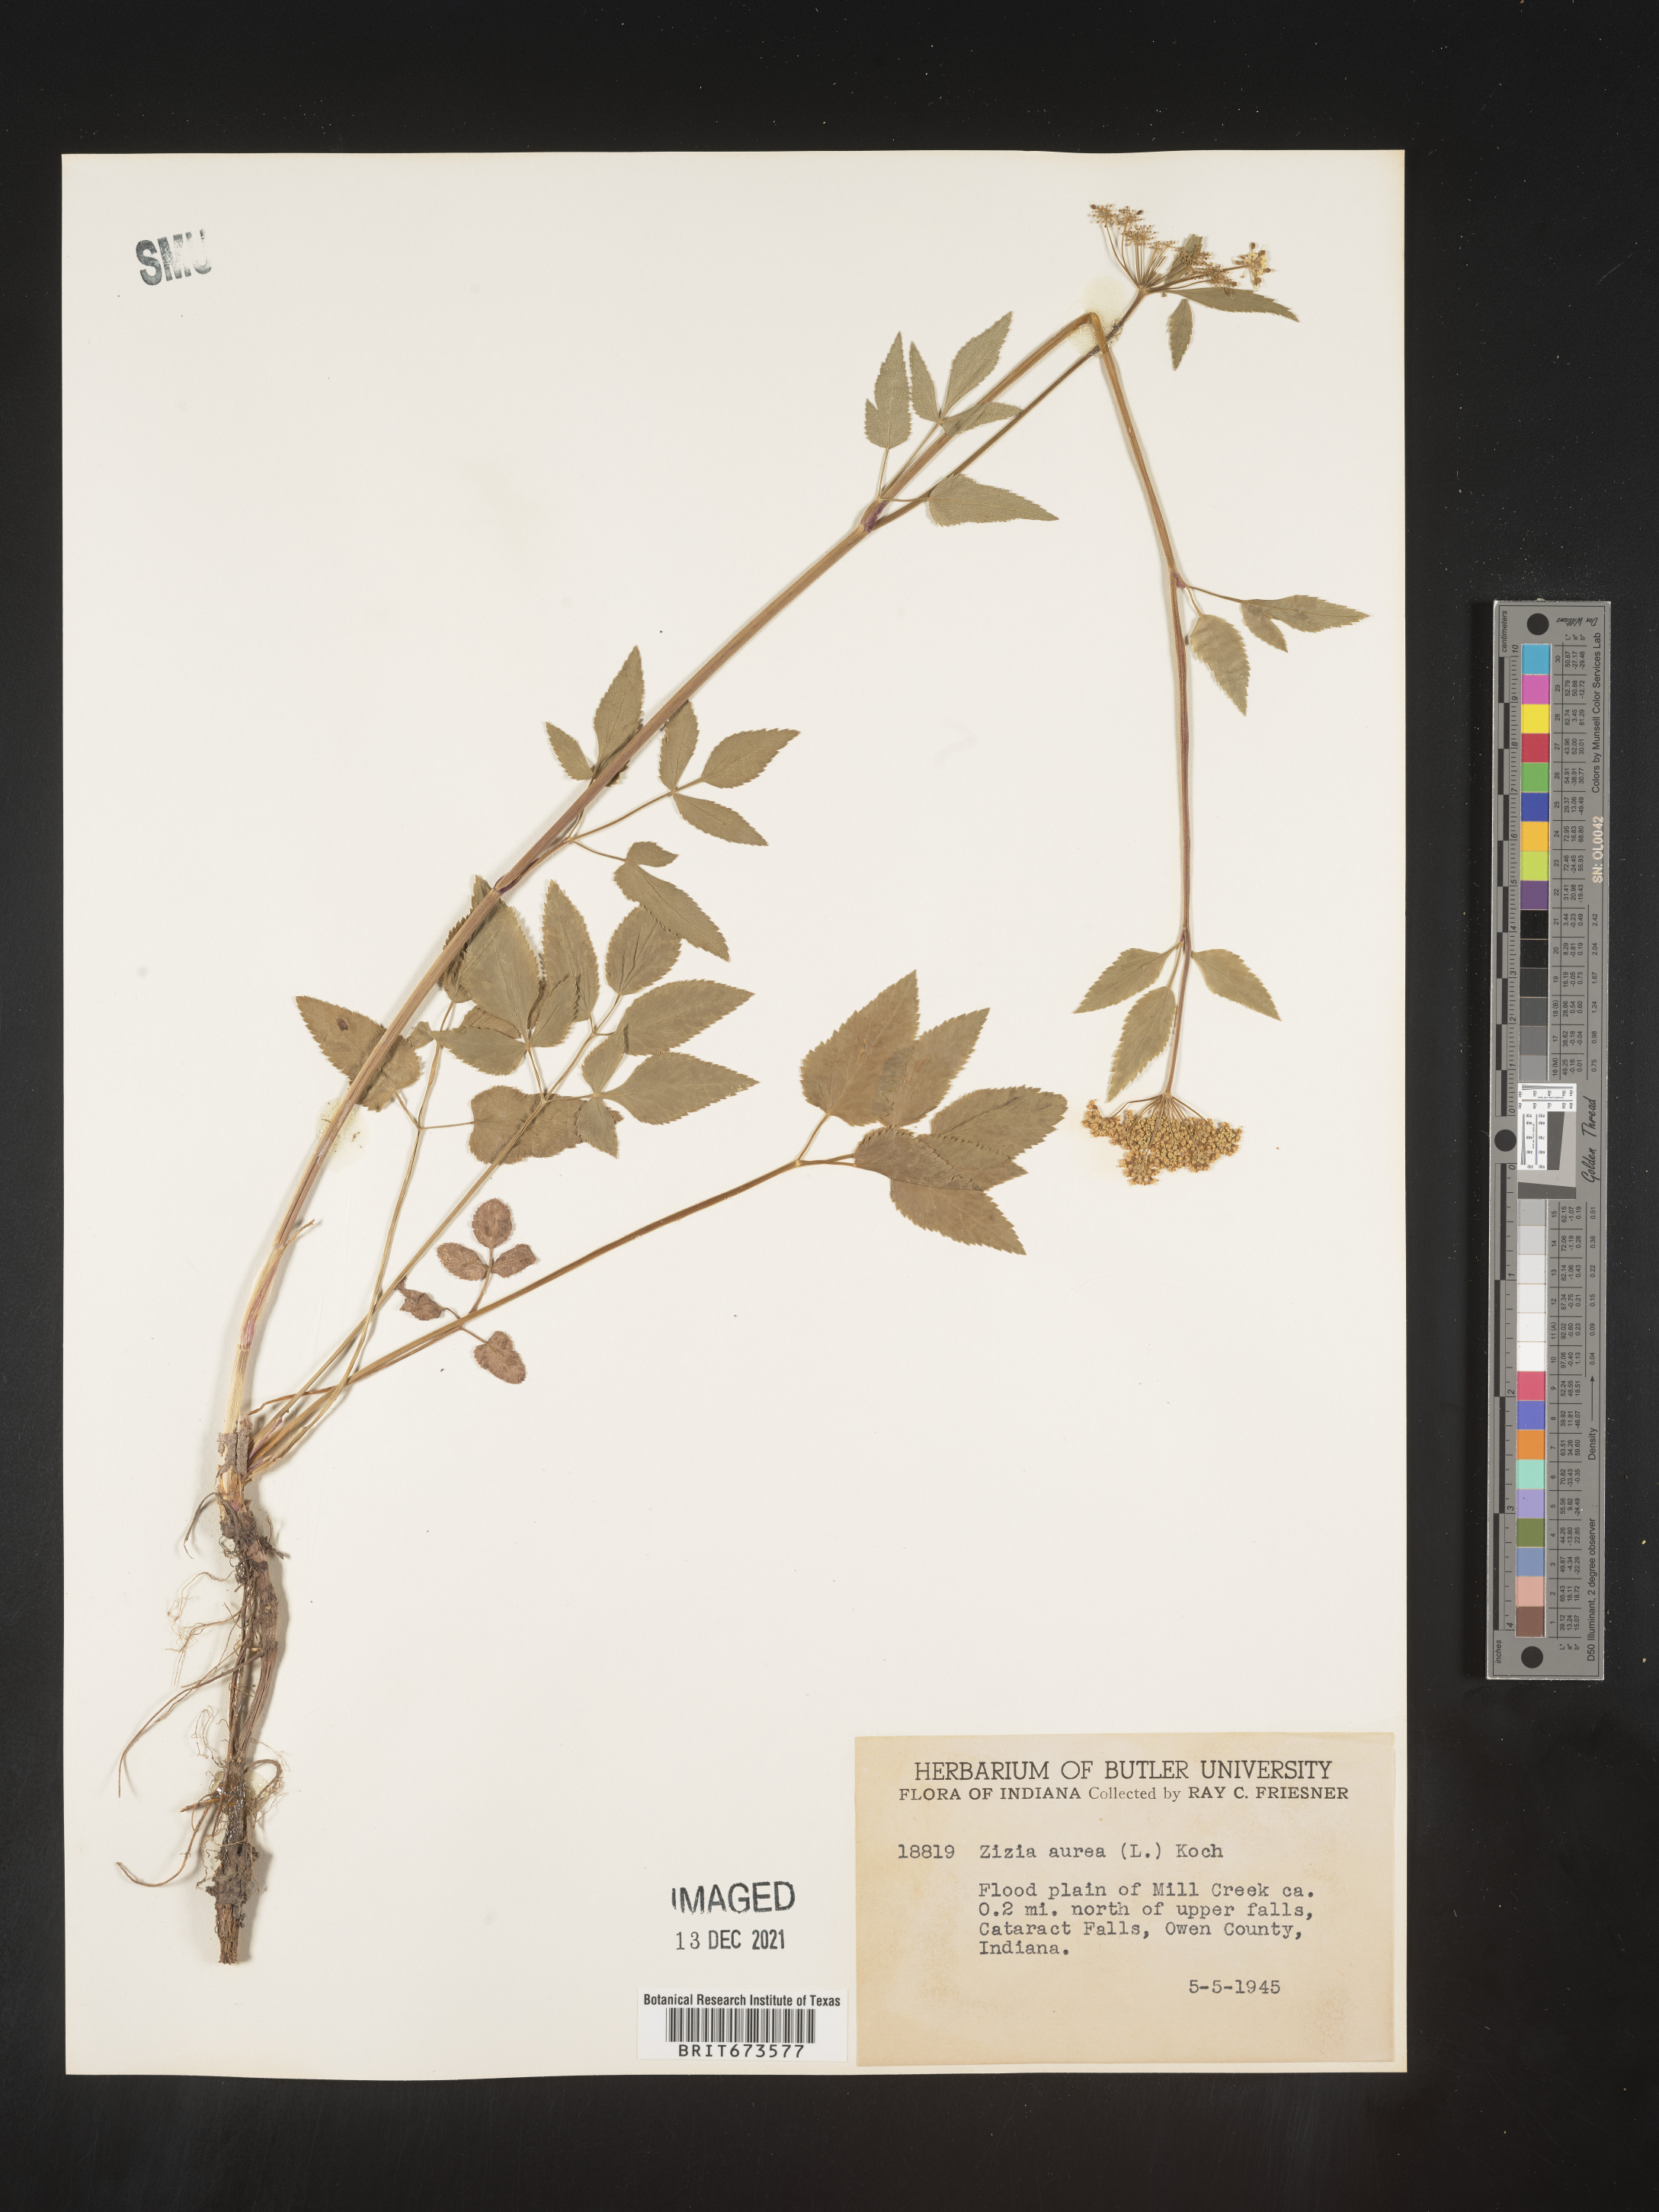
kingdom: Plantae
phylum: Tracheophyta
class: Magnoliopsida
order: Apiales
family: Apiaceae
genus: Zizia
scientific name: Zizia aurea
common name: Golden alexanders
